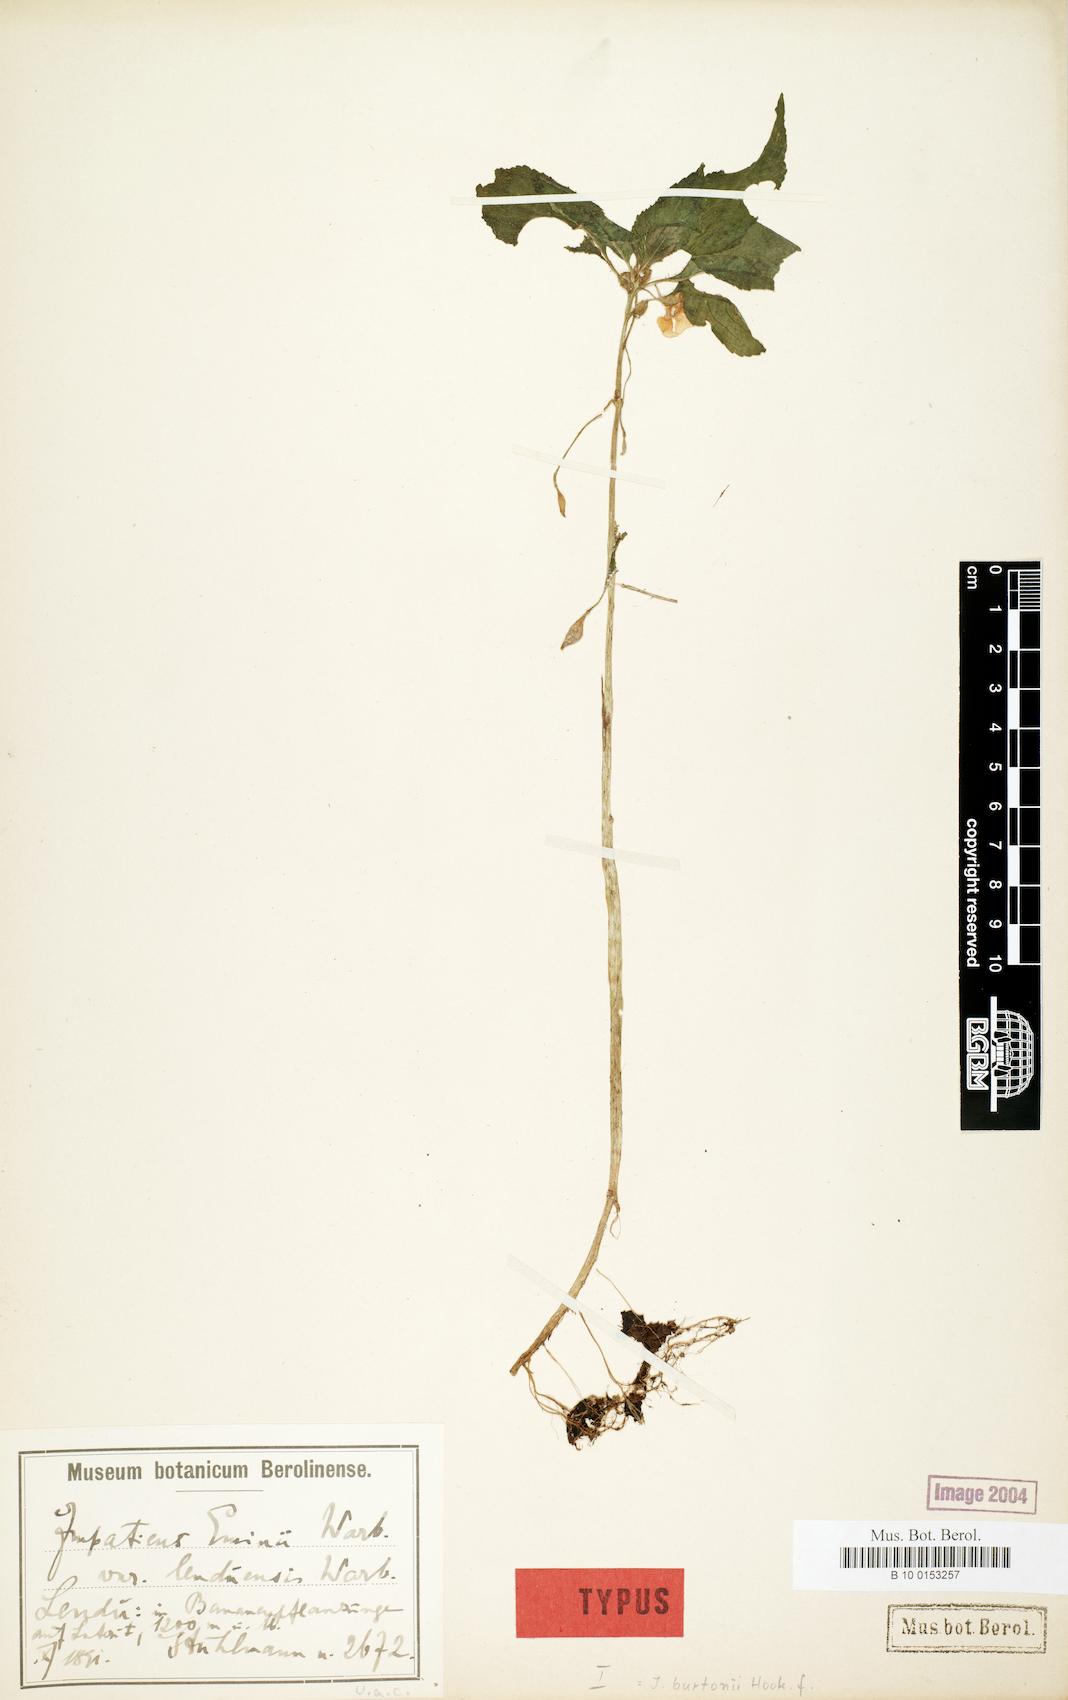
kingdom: Plantae
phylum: Tracheophyta
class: Magnoliopsida
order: Ericales
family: Balsaminaceae
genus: Impatiens
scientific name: Impatiens burtonii
